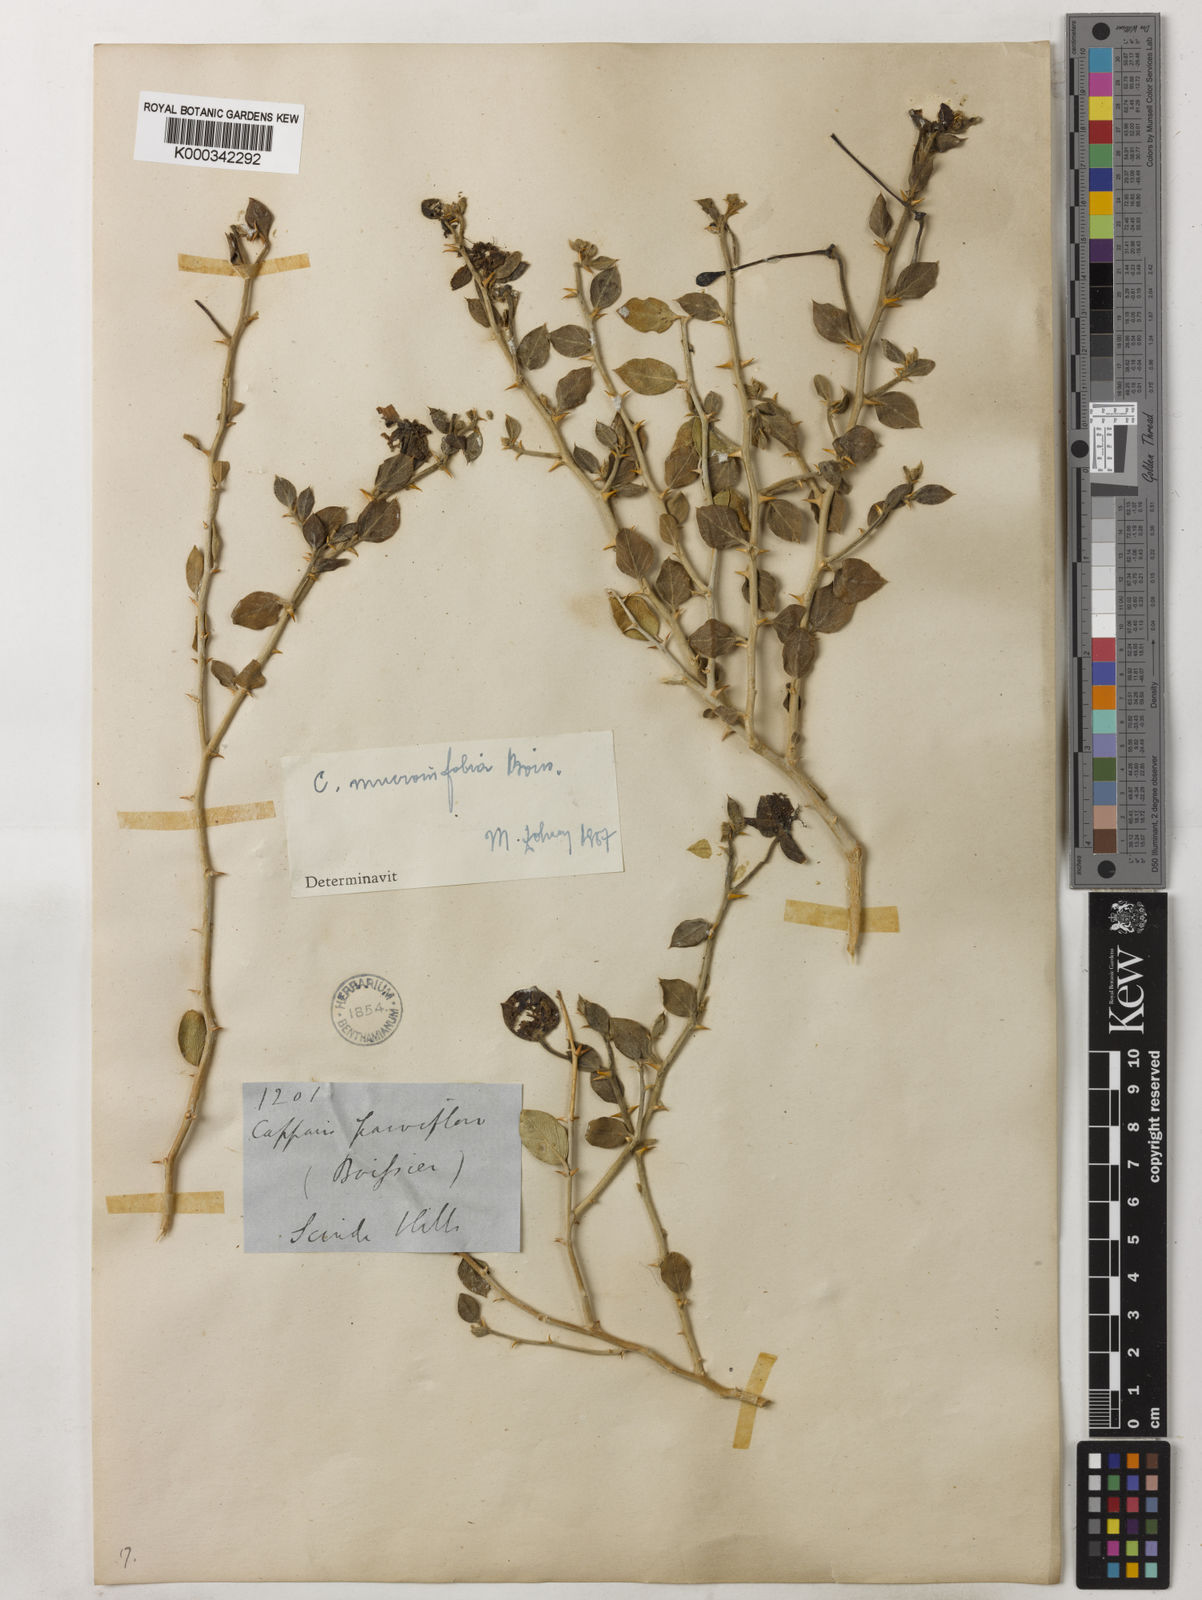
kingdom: Plantae
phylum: Tracheophyta
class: Magnoliopsida
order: Brassicales
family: Capparaceae
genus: Capparis
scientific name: Capparis spinosa
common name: Caper
